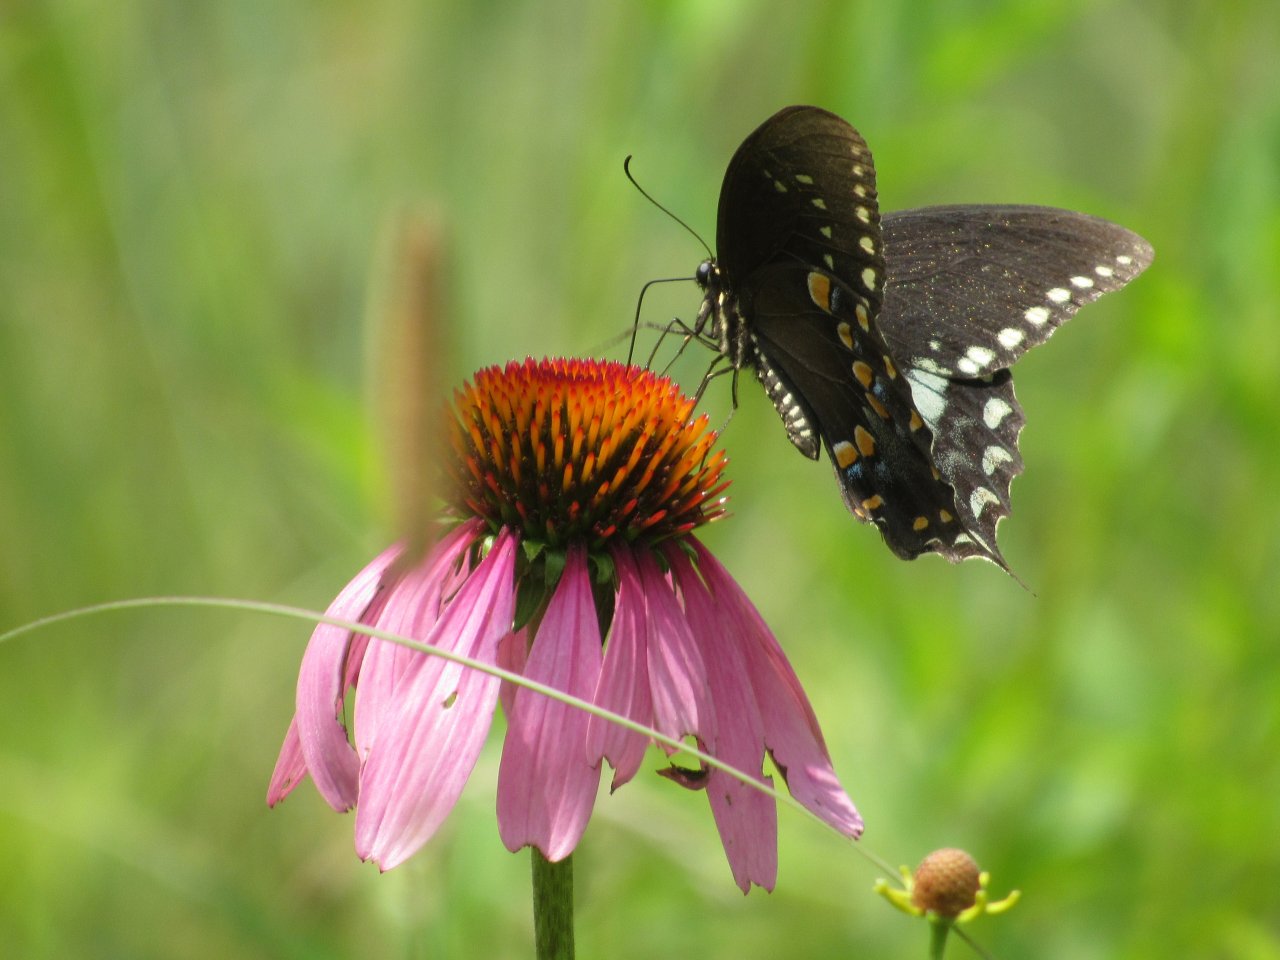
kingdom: Animalia
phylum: Arthropoda
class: Insecta
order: Lepidoptera
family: Papilionidae
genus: Pterourus
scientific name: Pterourus troilus
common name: Spicebush Swallowtail
